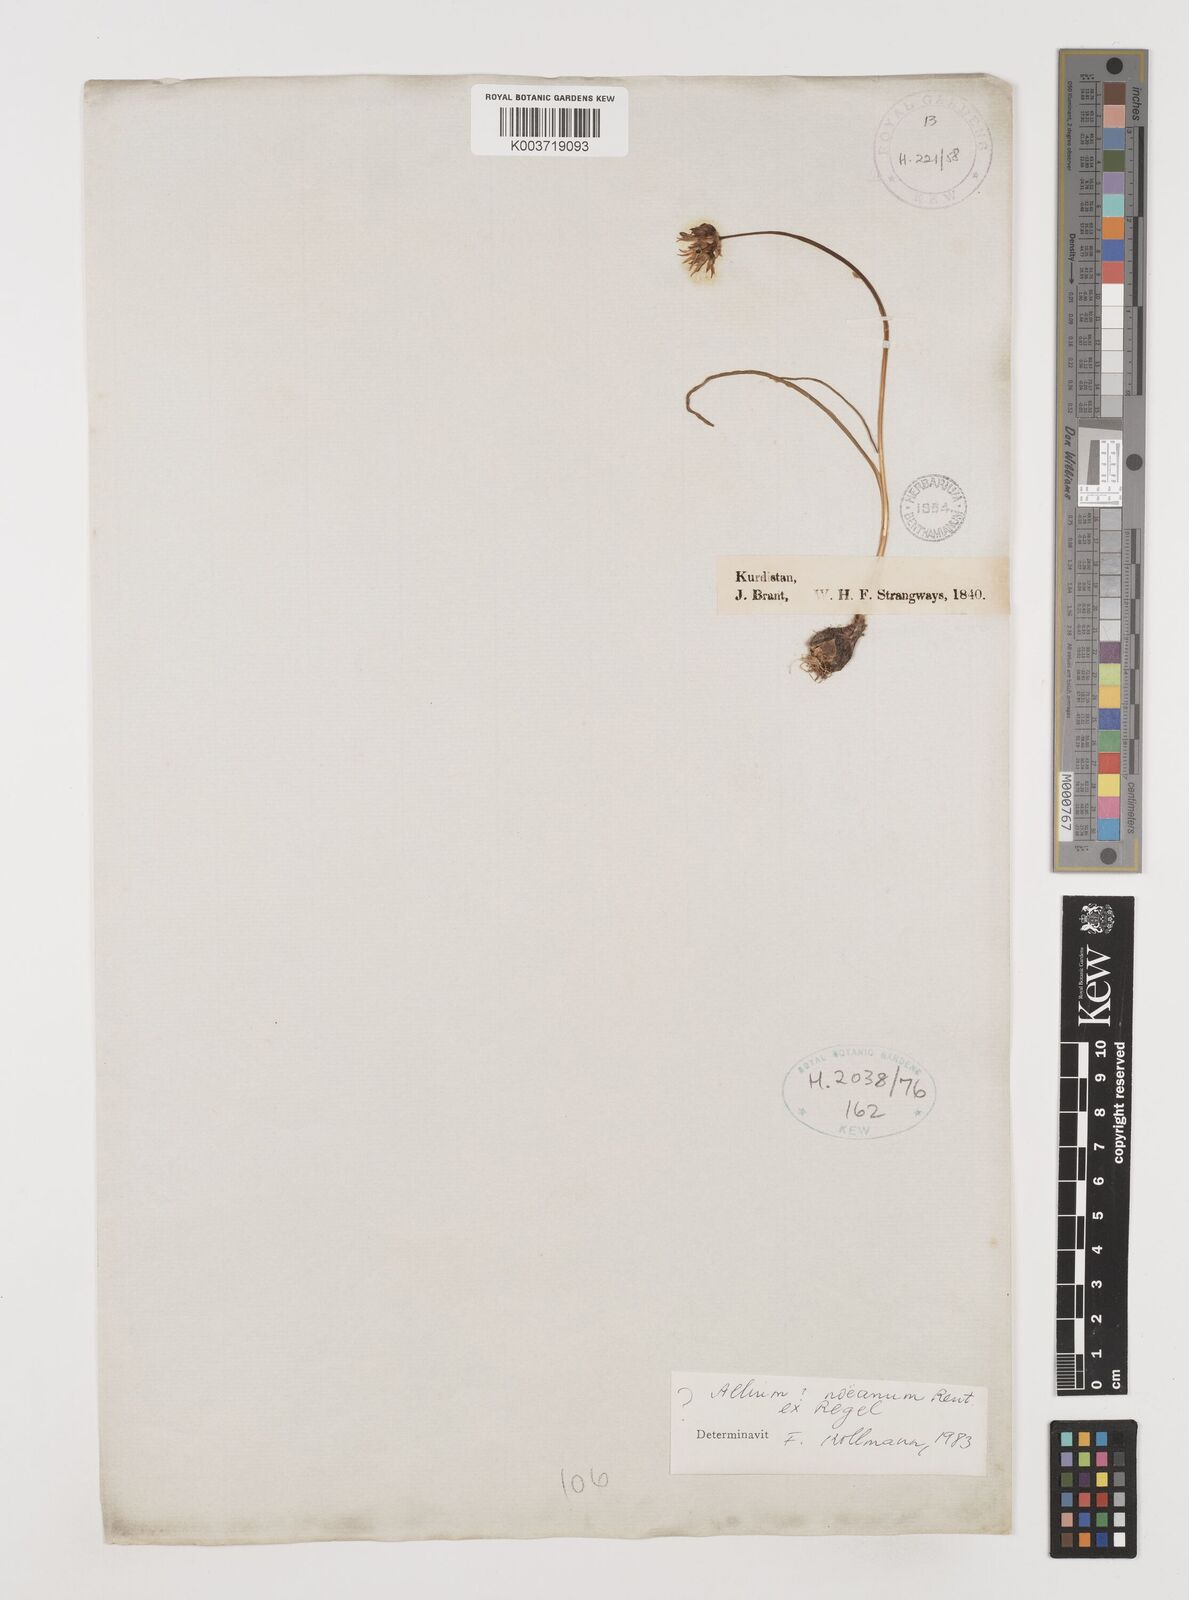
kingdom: Plantae
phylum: Tracheophyta
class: Liliopsida
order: Asparagales
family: Amaryllidaceae
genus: Allium
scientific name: Allium noeanum
